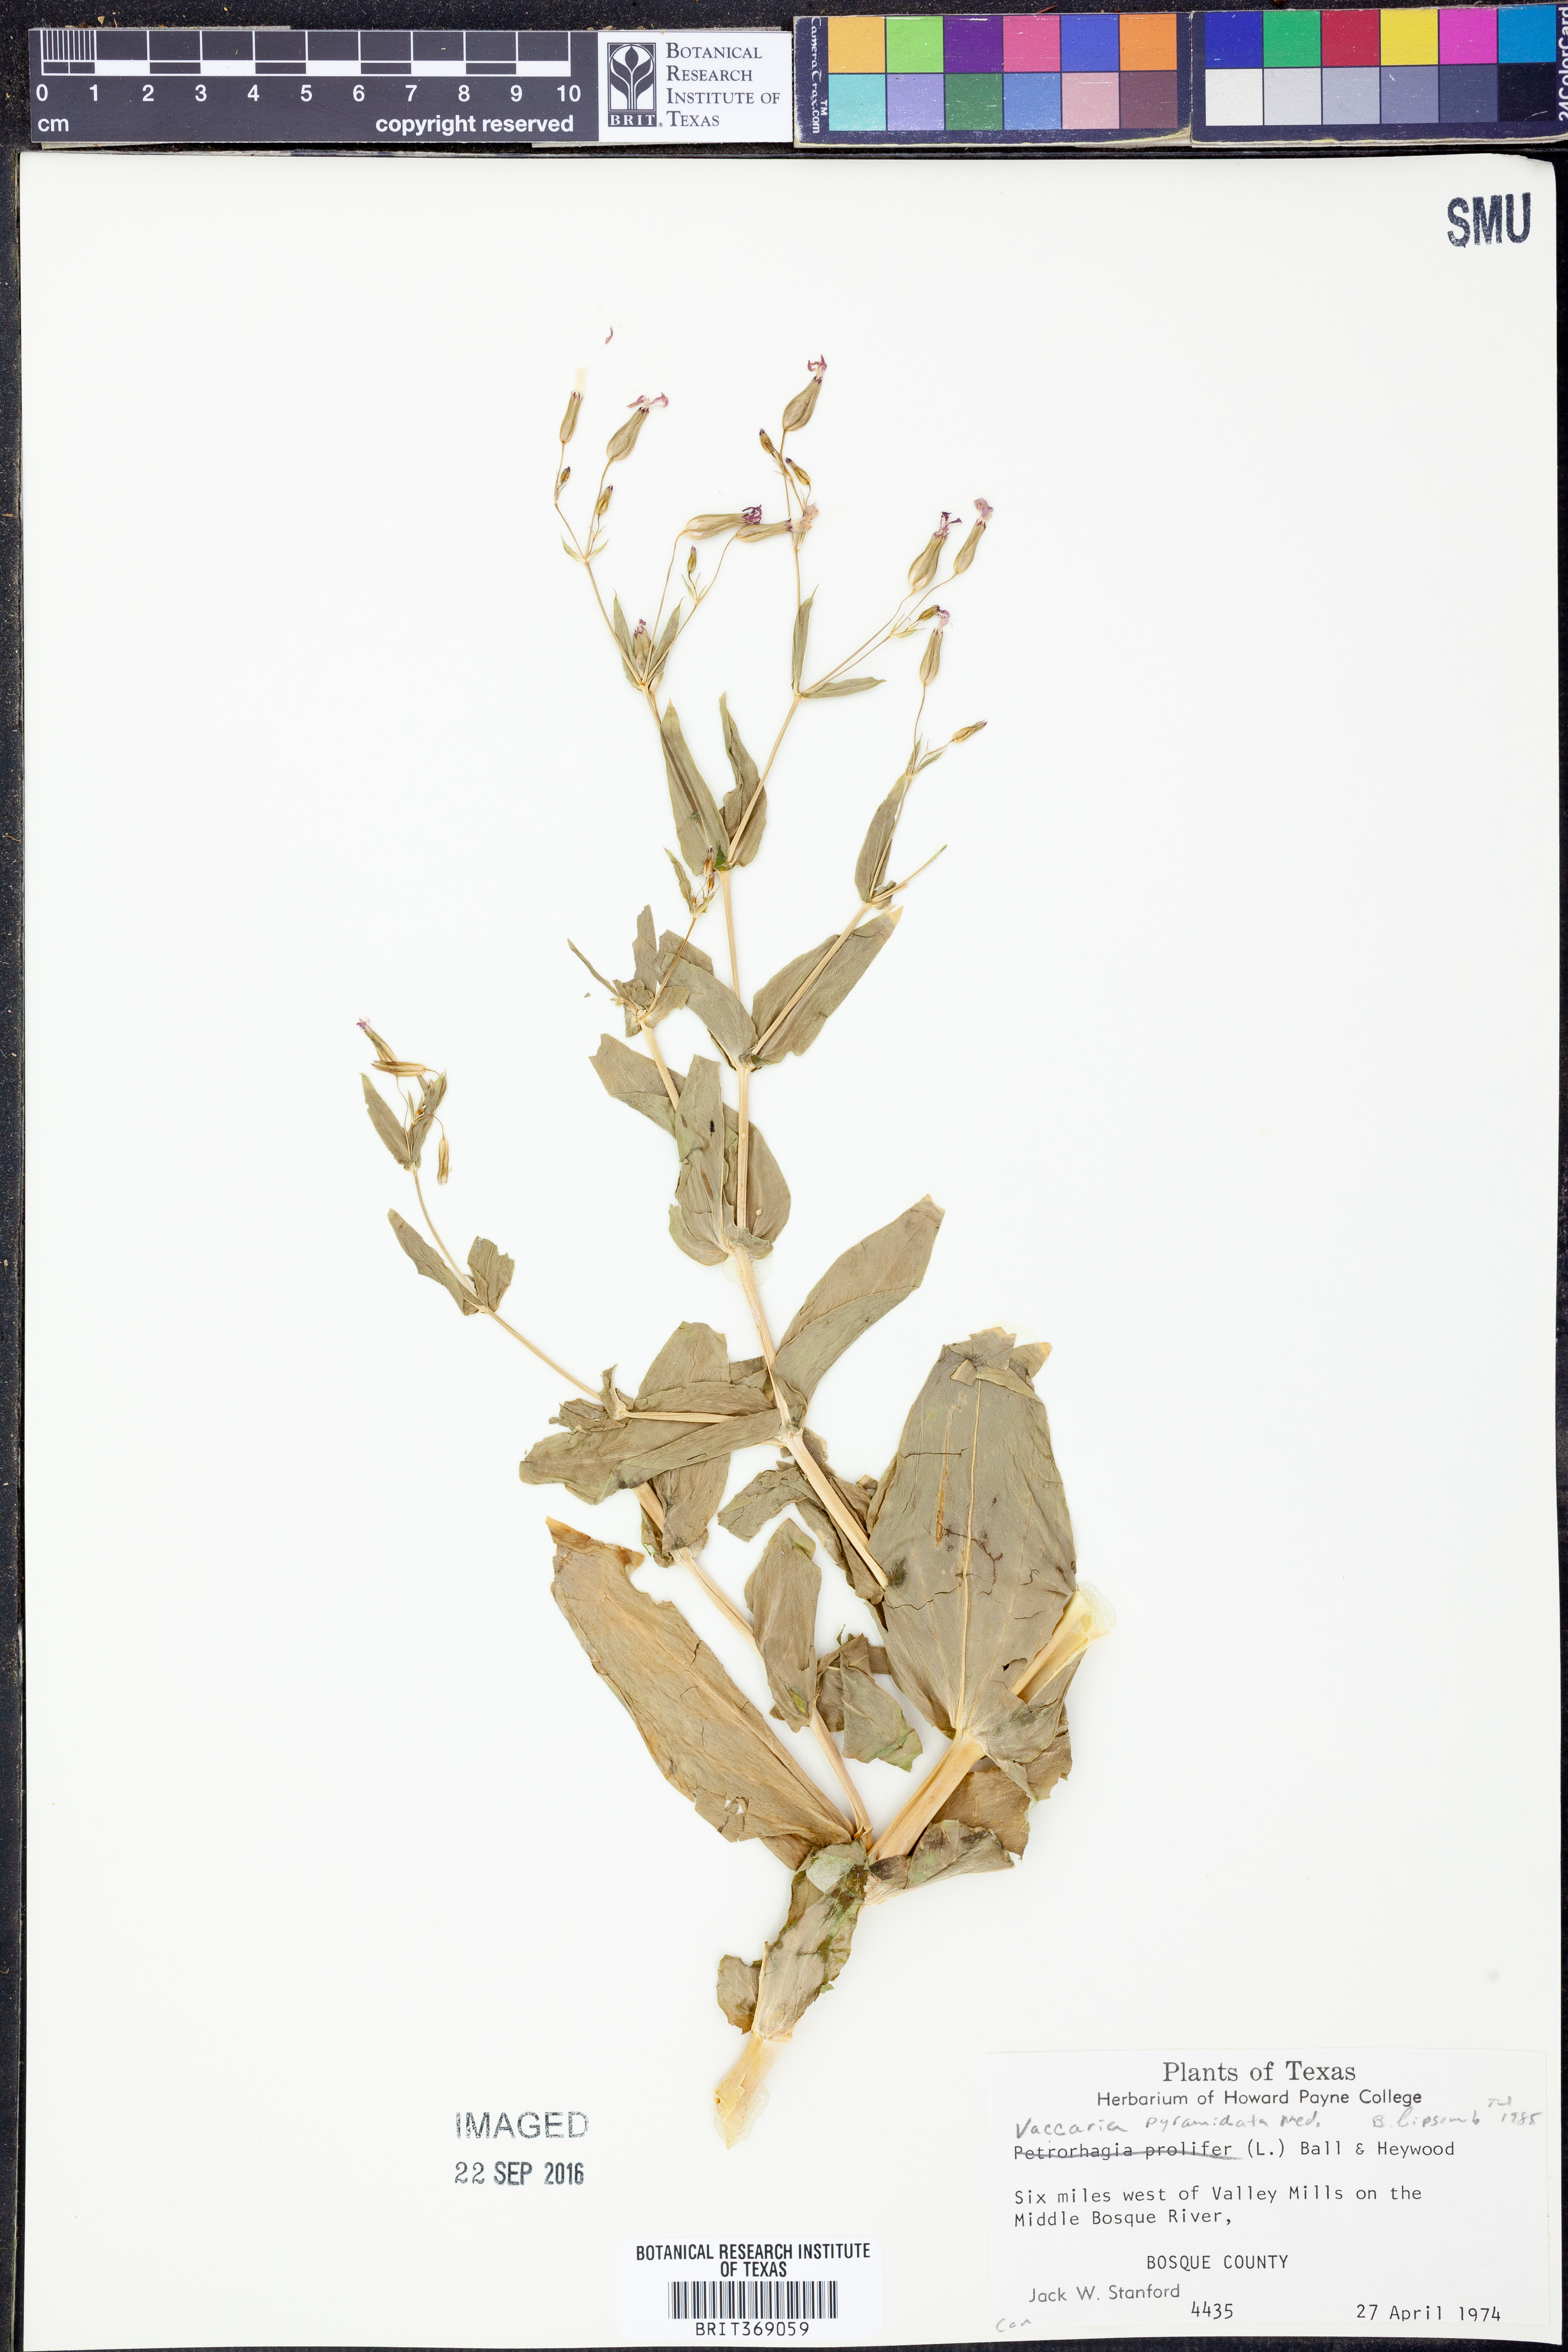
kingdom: Plantae
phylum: Tracheophyta
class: Magnoliopsida
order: Caryophyllales
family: Caryophyllaceae
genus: Gypsophila
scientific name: Gypsophila vaccaria
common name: Cow soapwort
